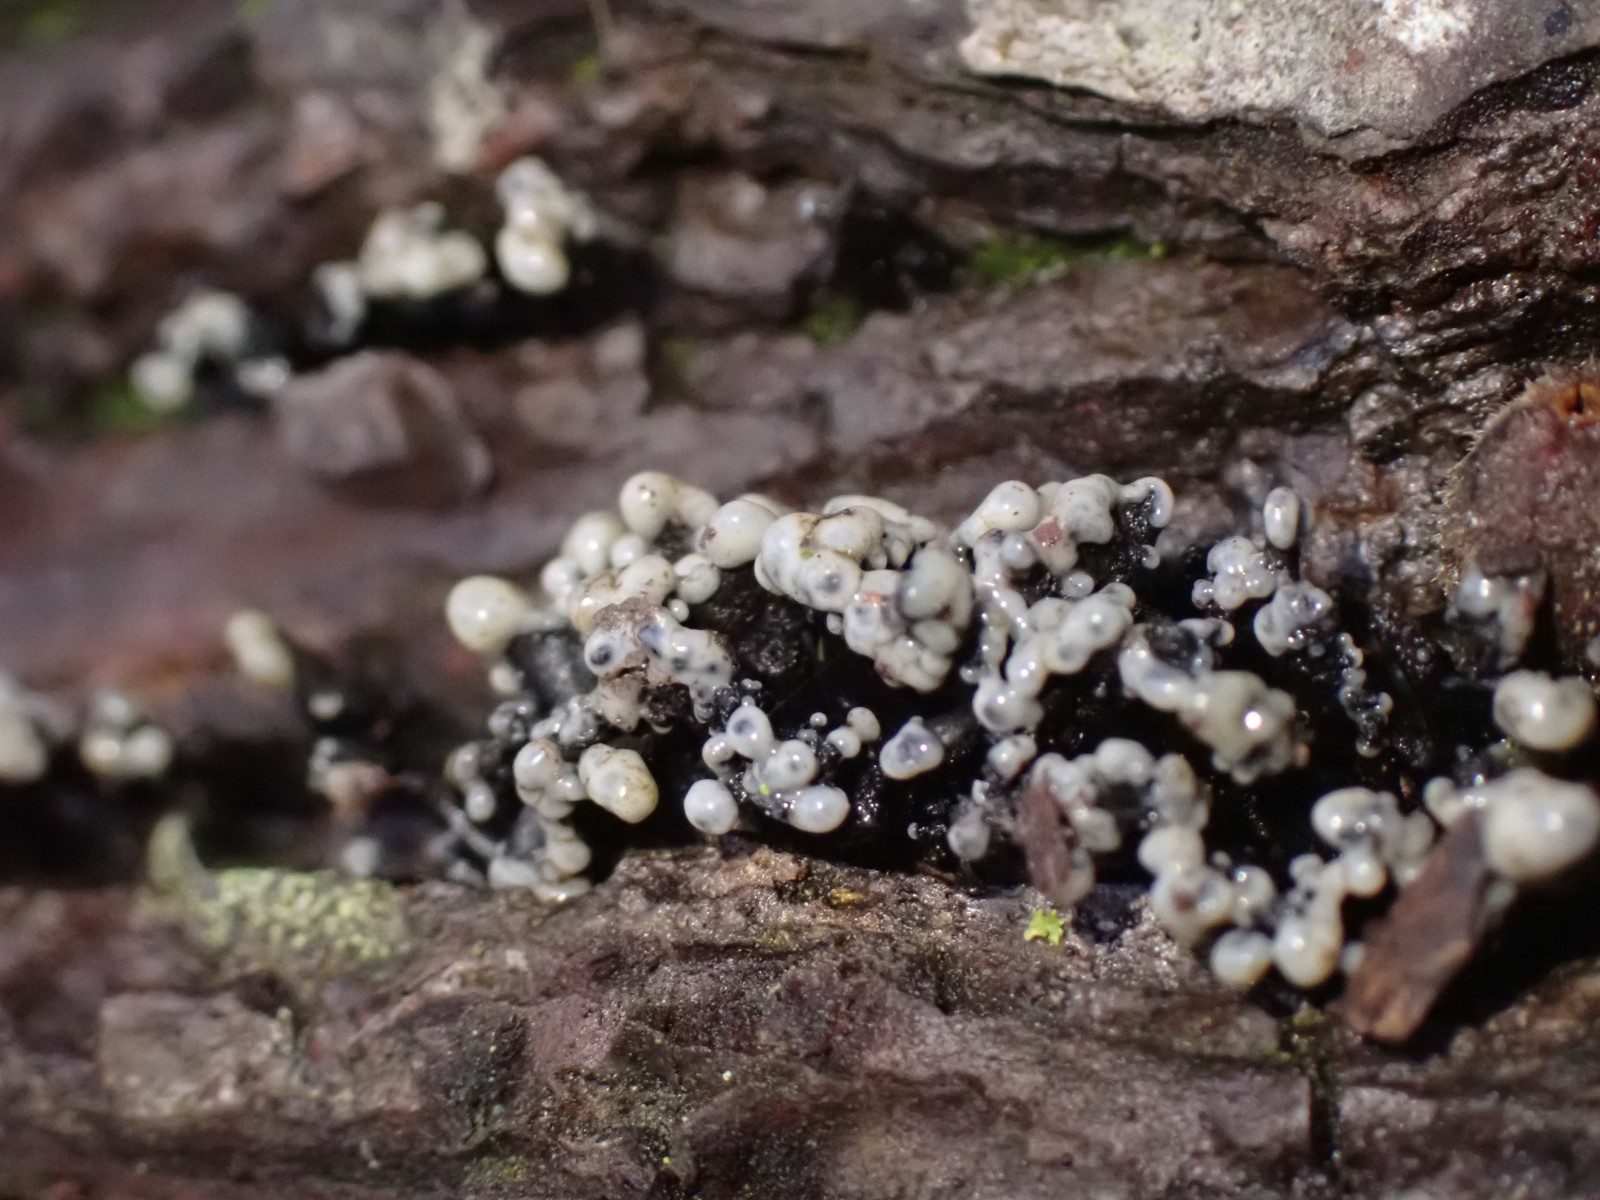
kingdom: Fungi
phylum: Ascomycota
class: Leotiomycetes
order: Helotiales
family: Bulgariaceae
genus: Holwaya
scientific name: Holwaya mucida
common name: lindeskive
